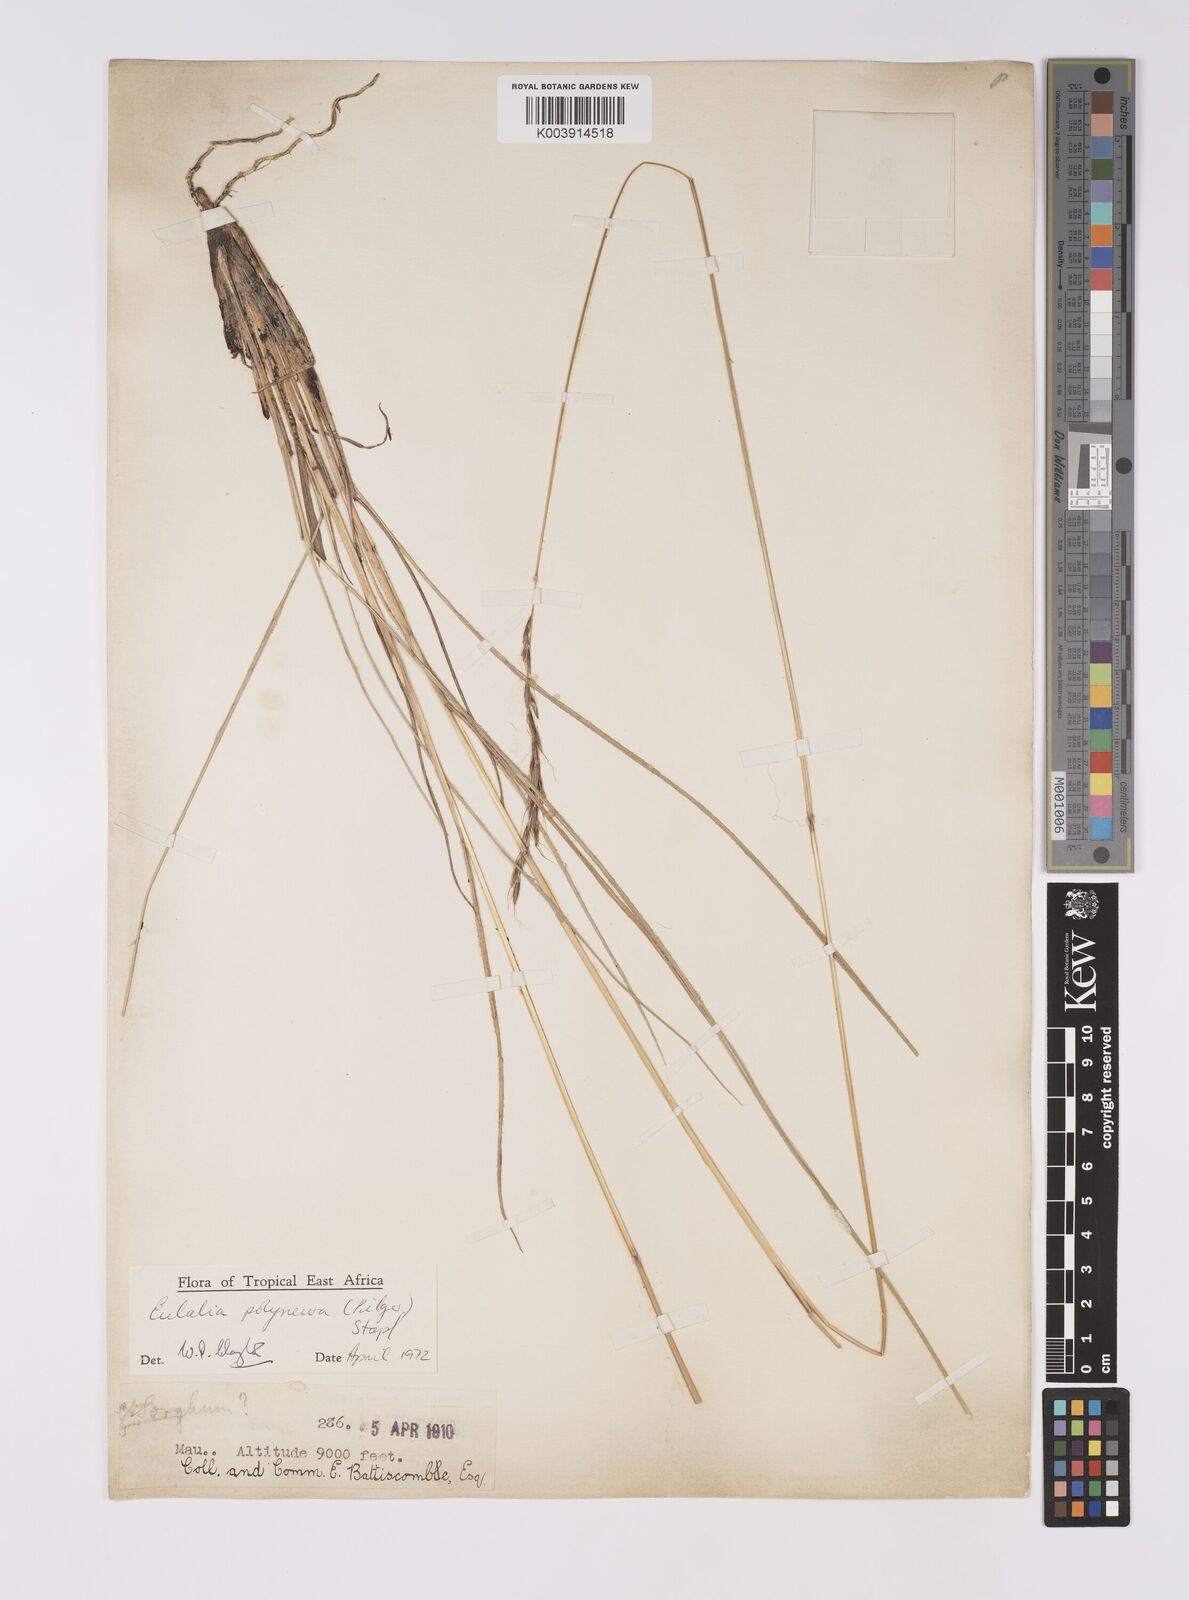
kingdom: Plantae
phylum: Tracheophyta
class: Liliopsida
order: Poales
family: Poaceae
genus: Eulalia
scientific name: Eulalia polyneura
